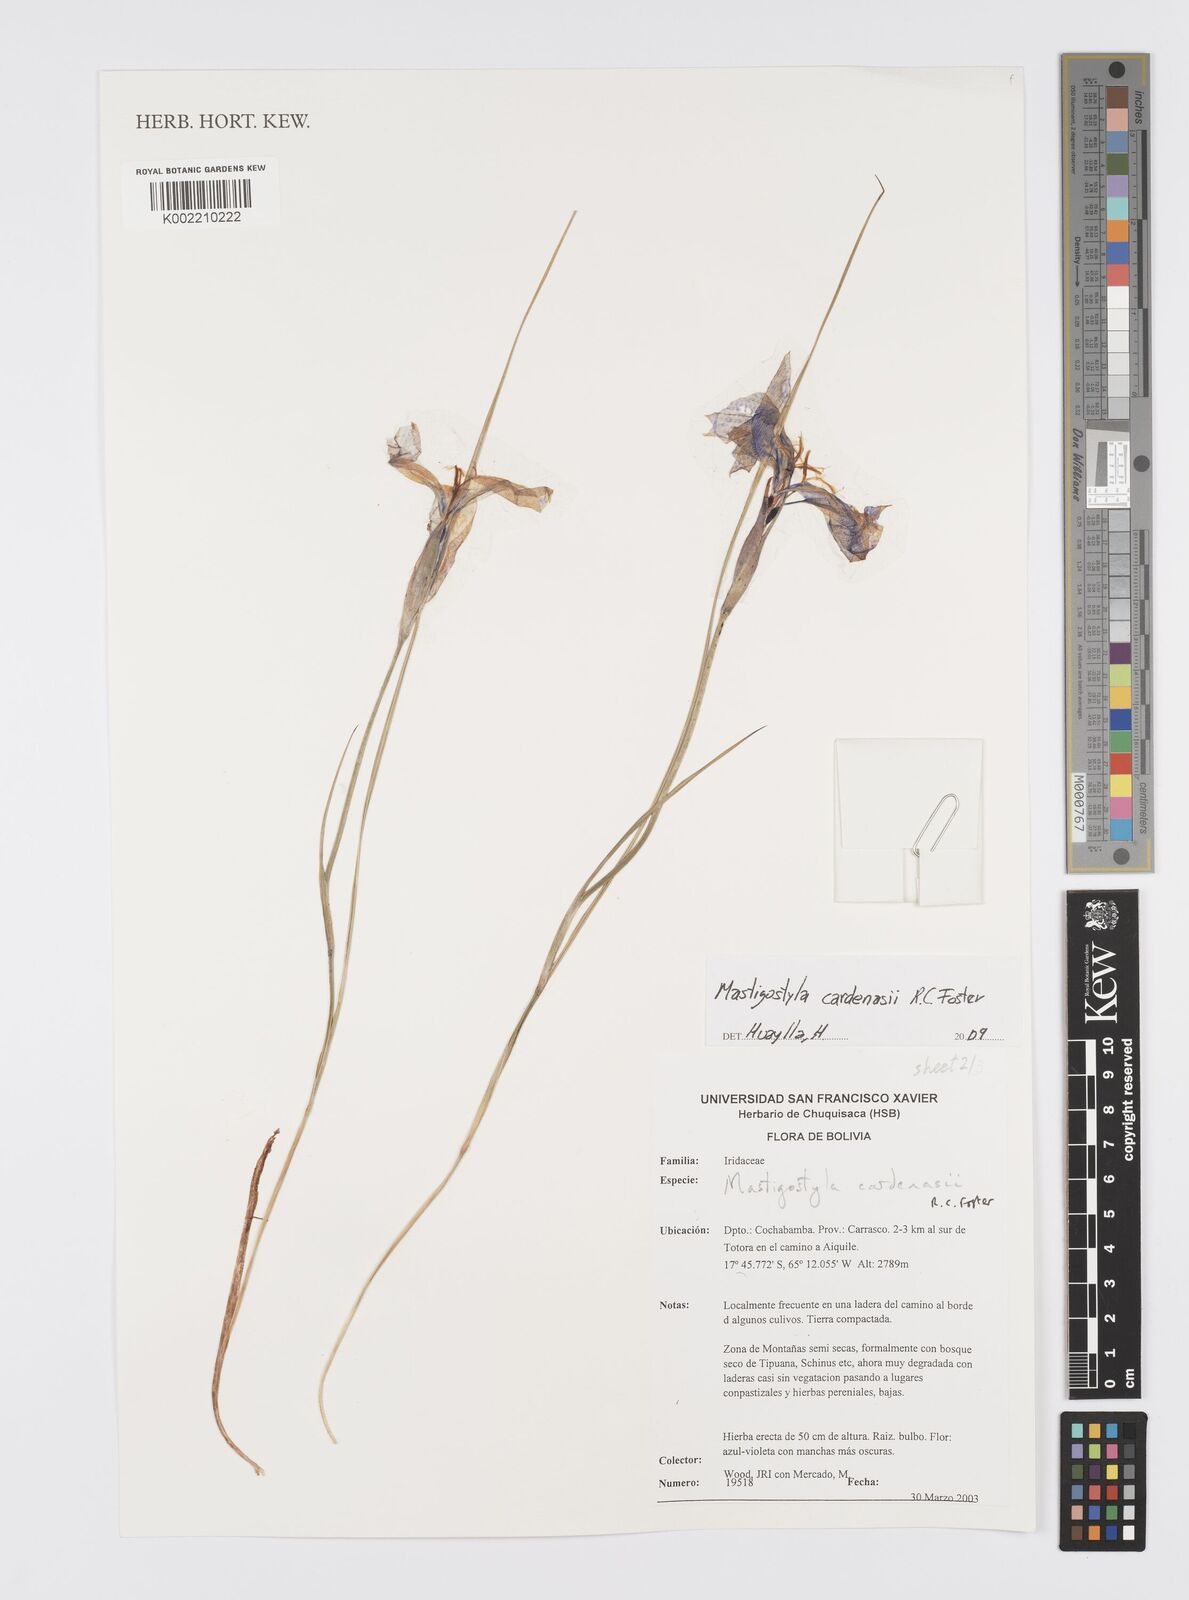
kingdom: Plantae
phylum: Tracheophyta
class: Liliopsida
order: Asparagales
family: Iridaceae
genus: Mastigostyla
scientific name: Mastigostyla cardenasii
